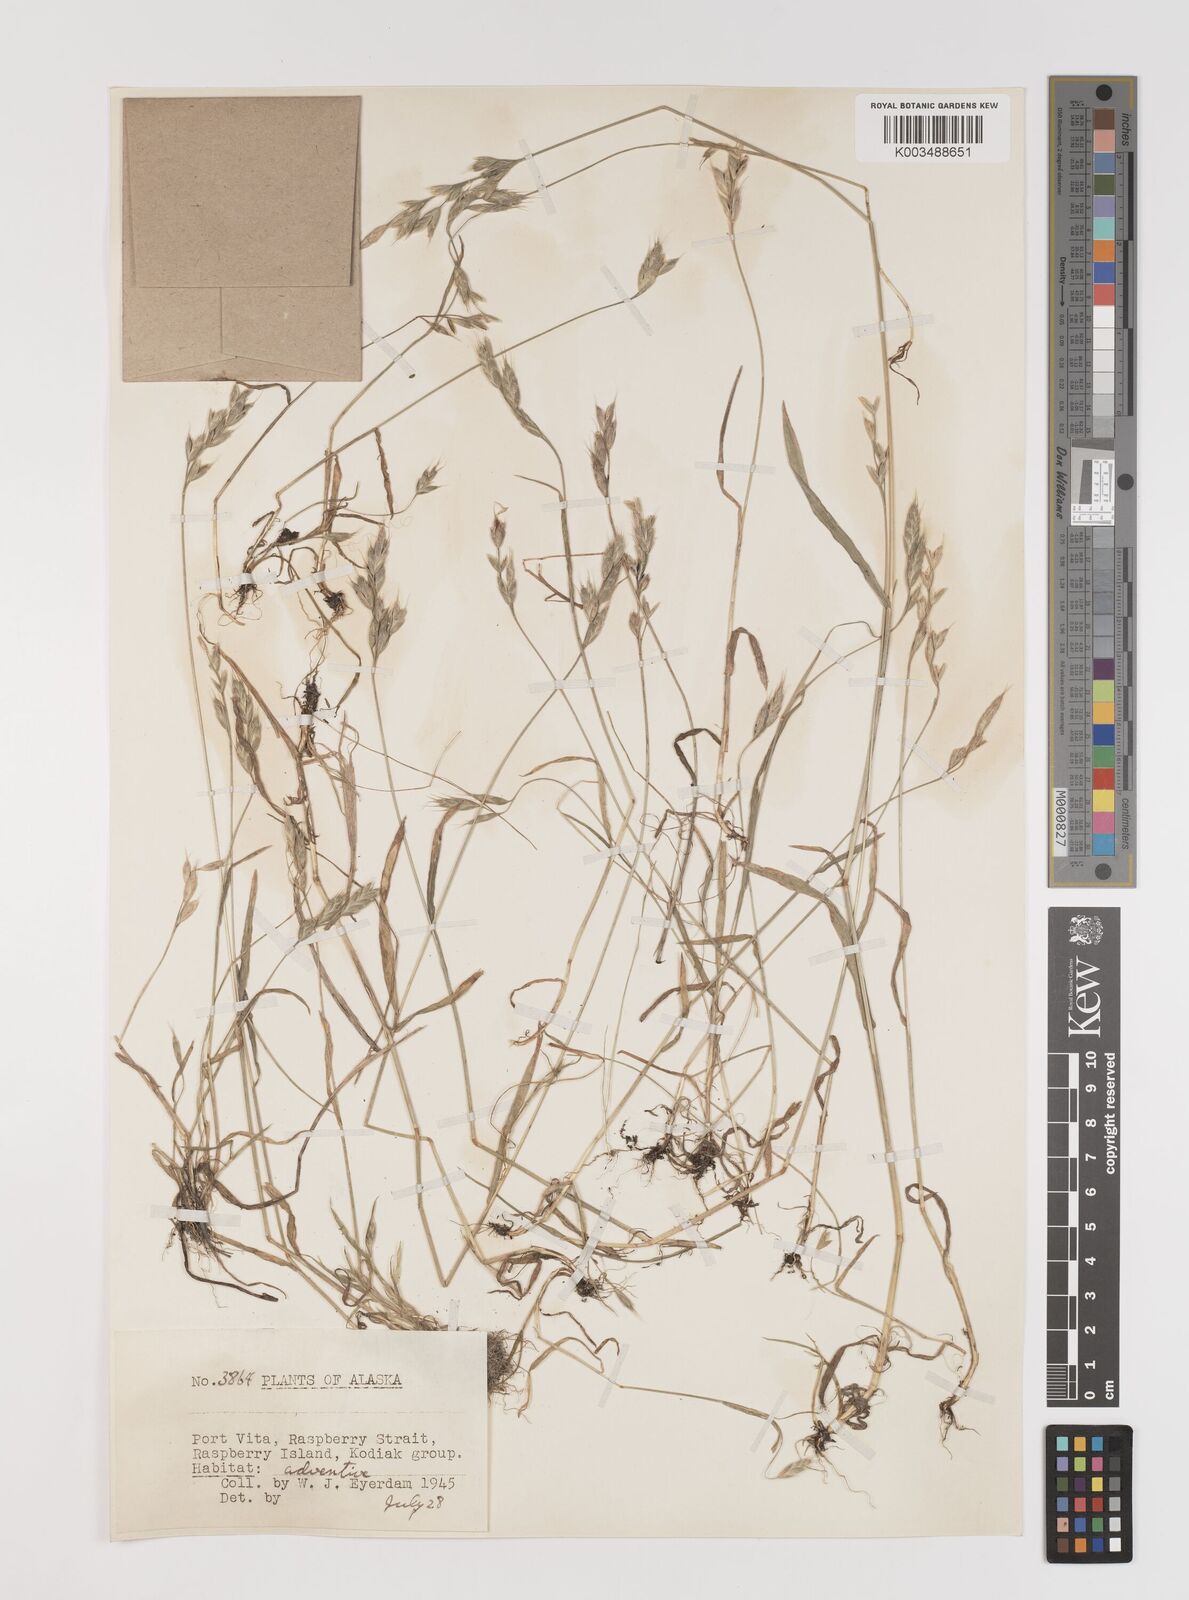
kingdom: Plantae
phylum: Tracheophyta
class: Liliopsida
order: Poales
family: Poaceae
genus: Bromus
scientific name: Bromus hordeaceus
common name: Soft brome
